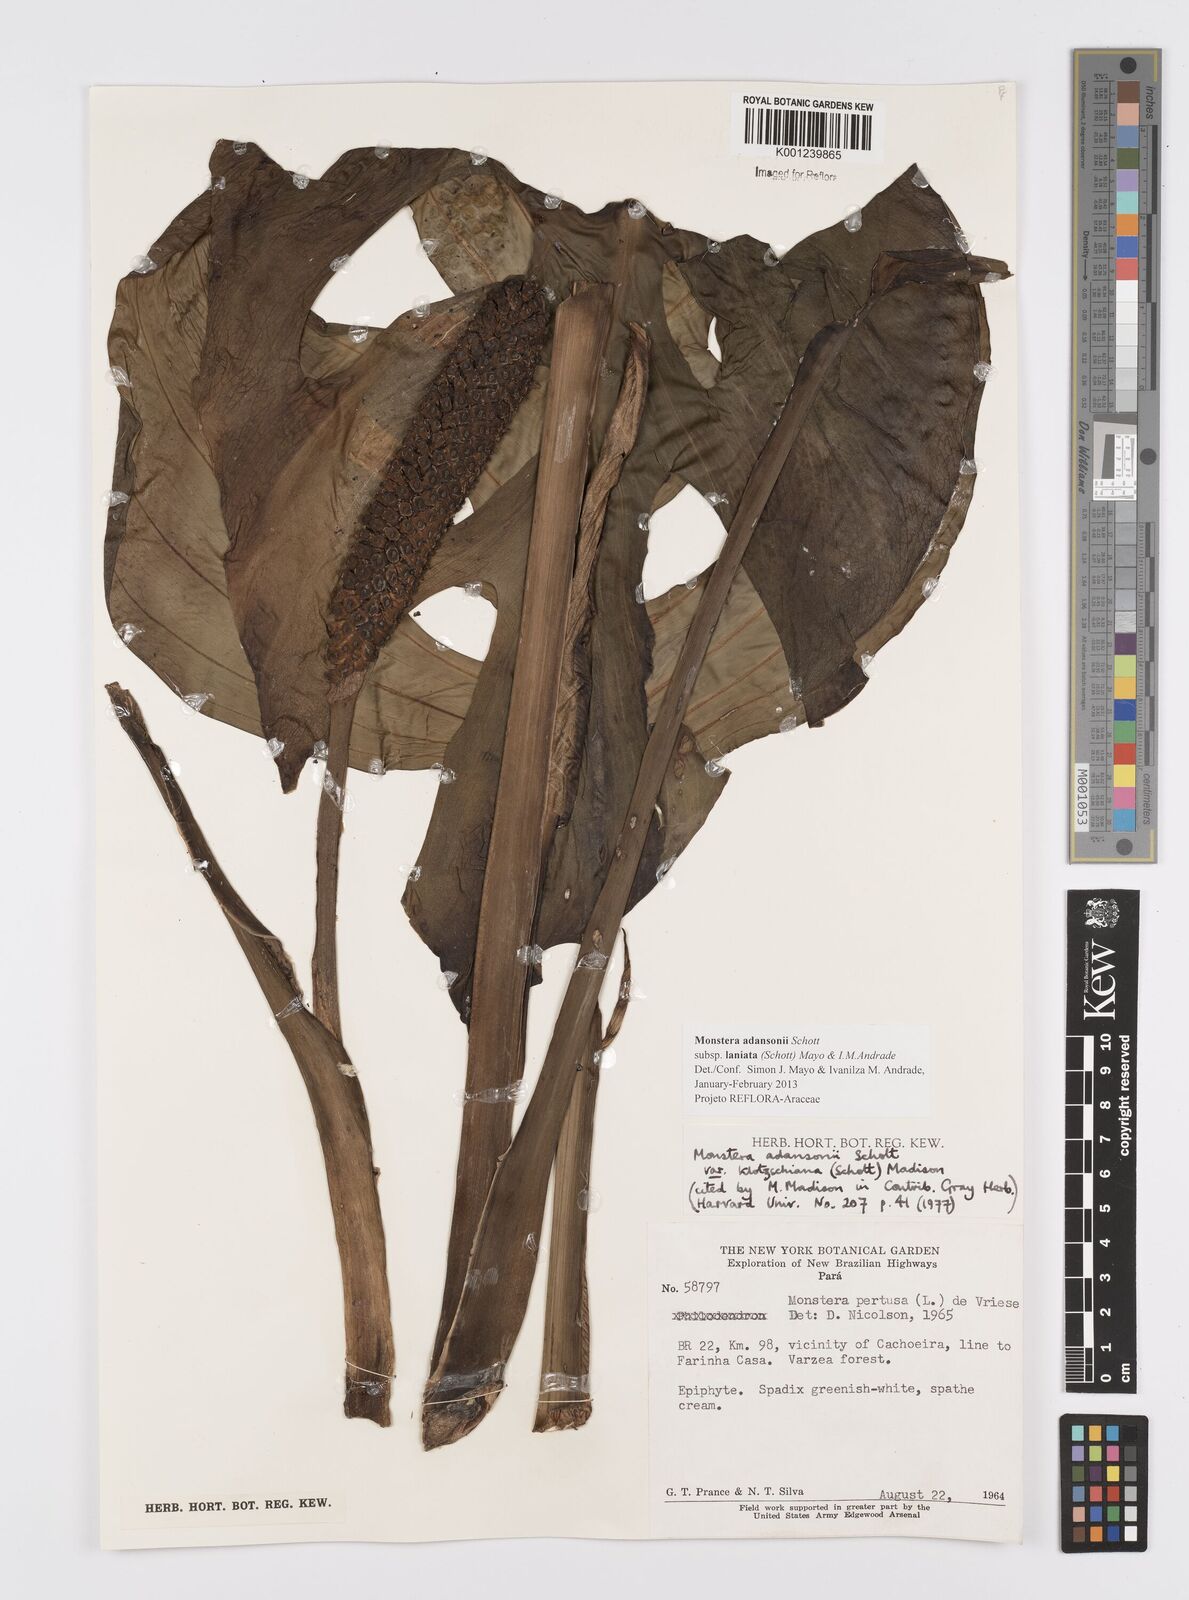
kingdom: Plantae
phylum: Tracheophyta
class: Liliopsida
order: Alismatales
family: Araceae
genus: Monstera
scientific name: Monstera adansonii
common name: Tarovine
